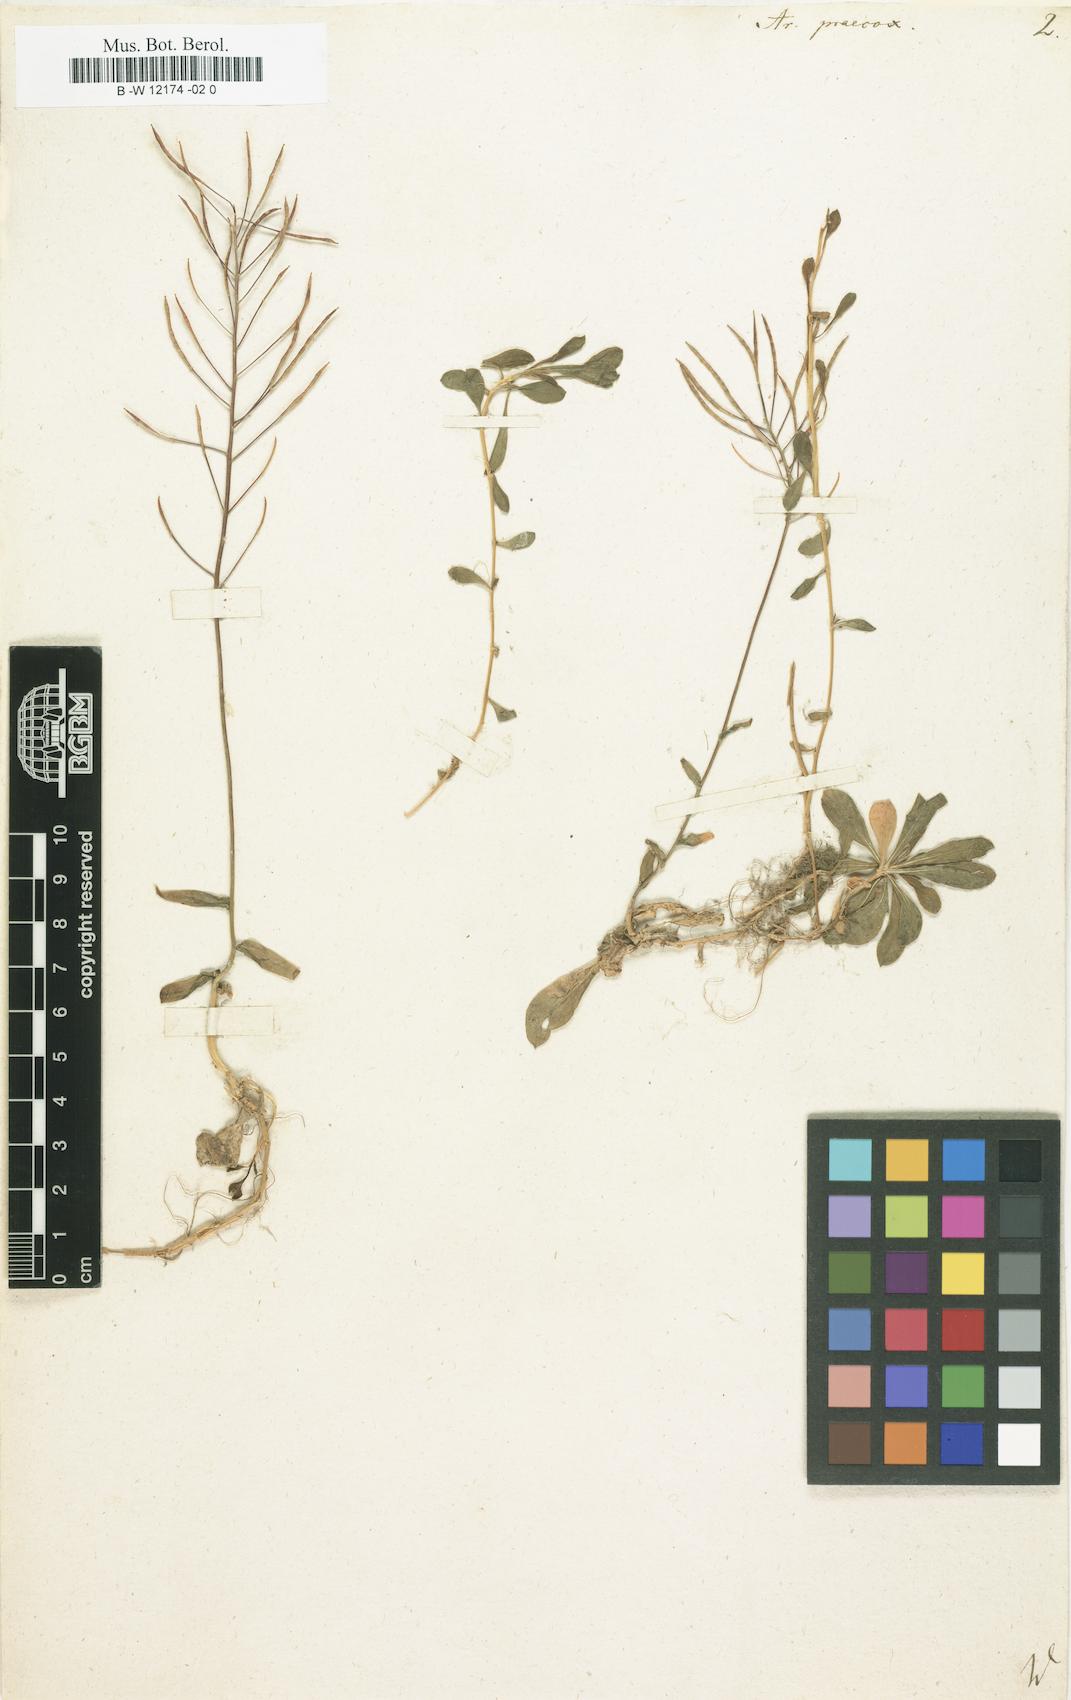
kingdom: Plantae
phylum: Tracheophyta
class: Magnoliopsida
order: Brassicales
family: Brassicaceae
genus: Arabis
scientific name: Arabis procurrens
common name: Running rockcress
